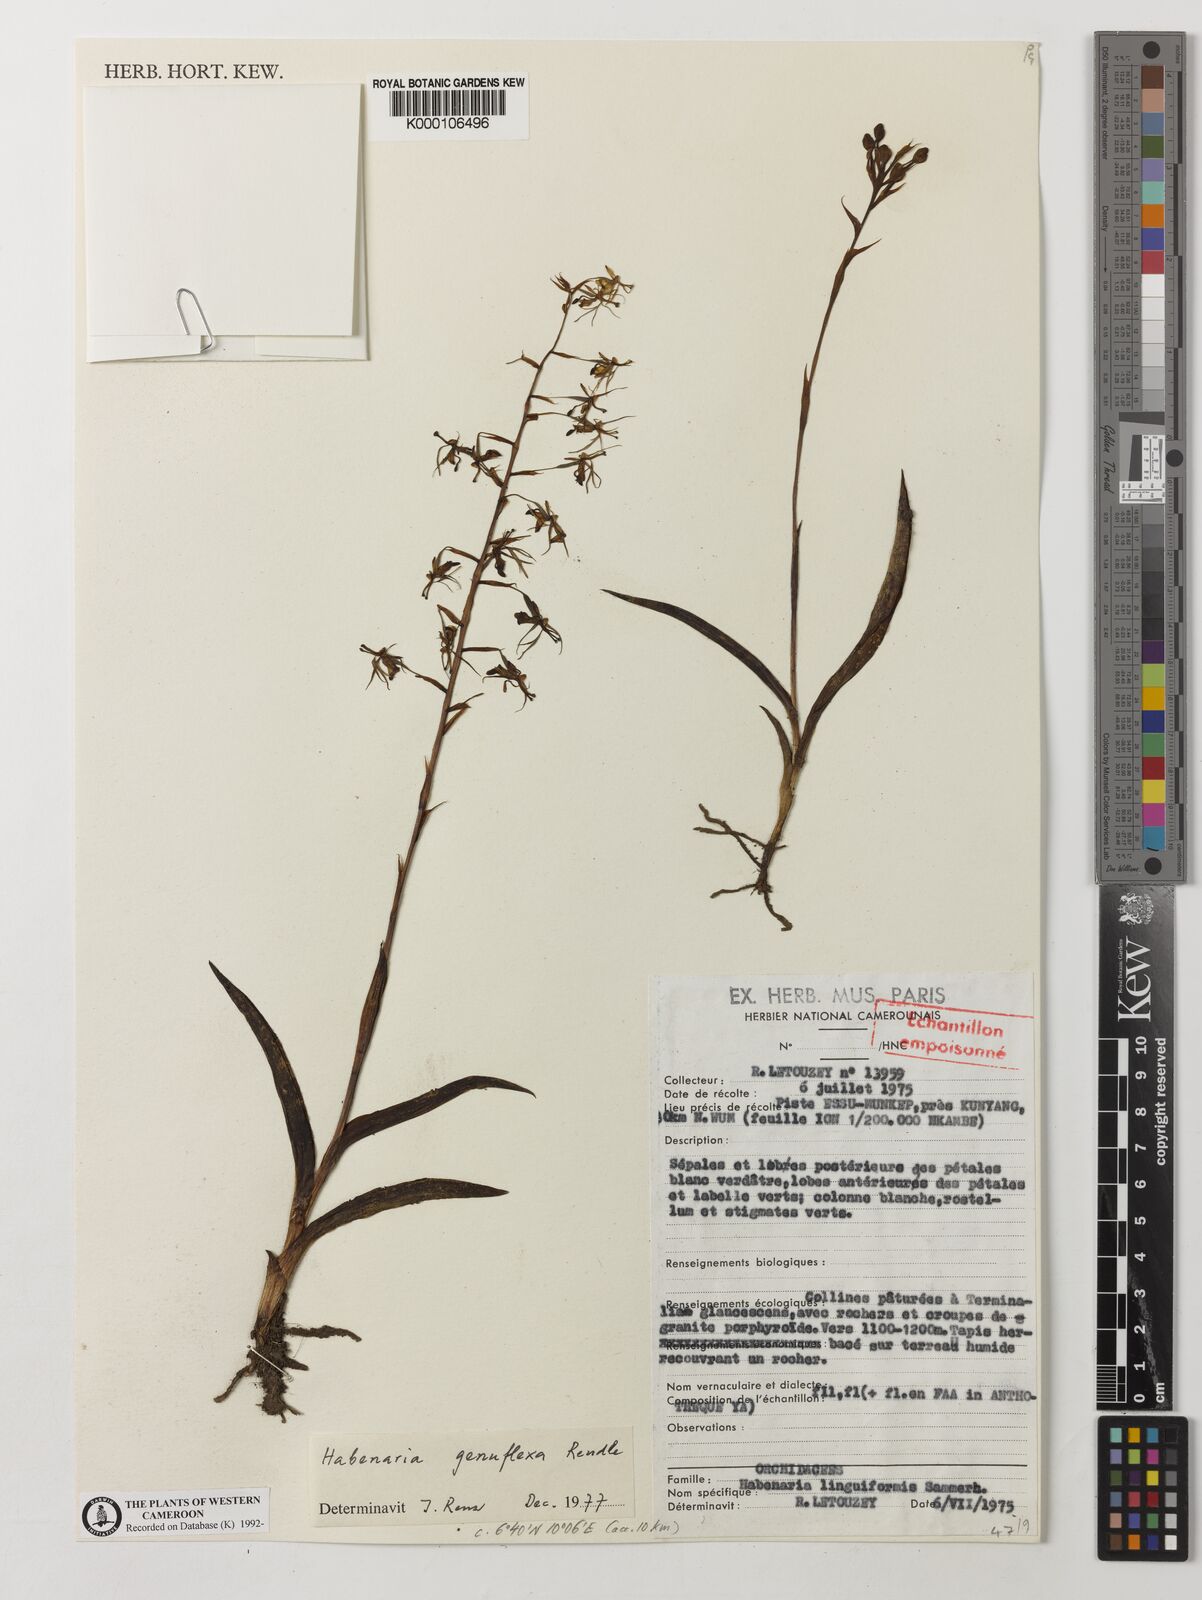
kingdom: Plantae
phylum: Tracheophyta
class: Liliopsida
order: Asparagales
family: Orchidaceae
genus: Habenaria
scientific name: Habenaria genuflexa
